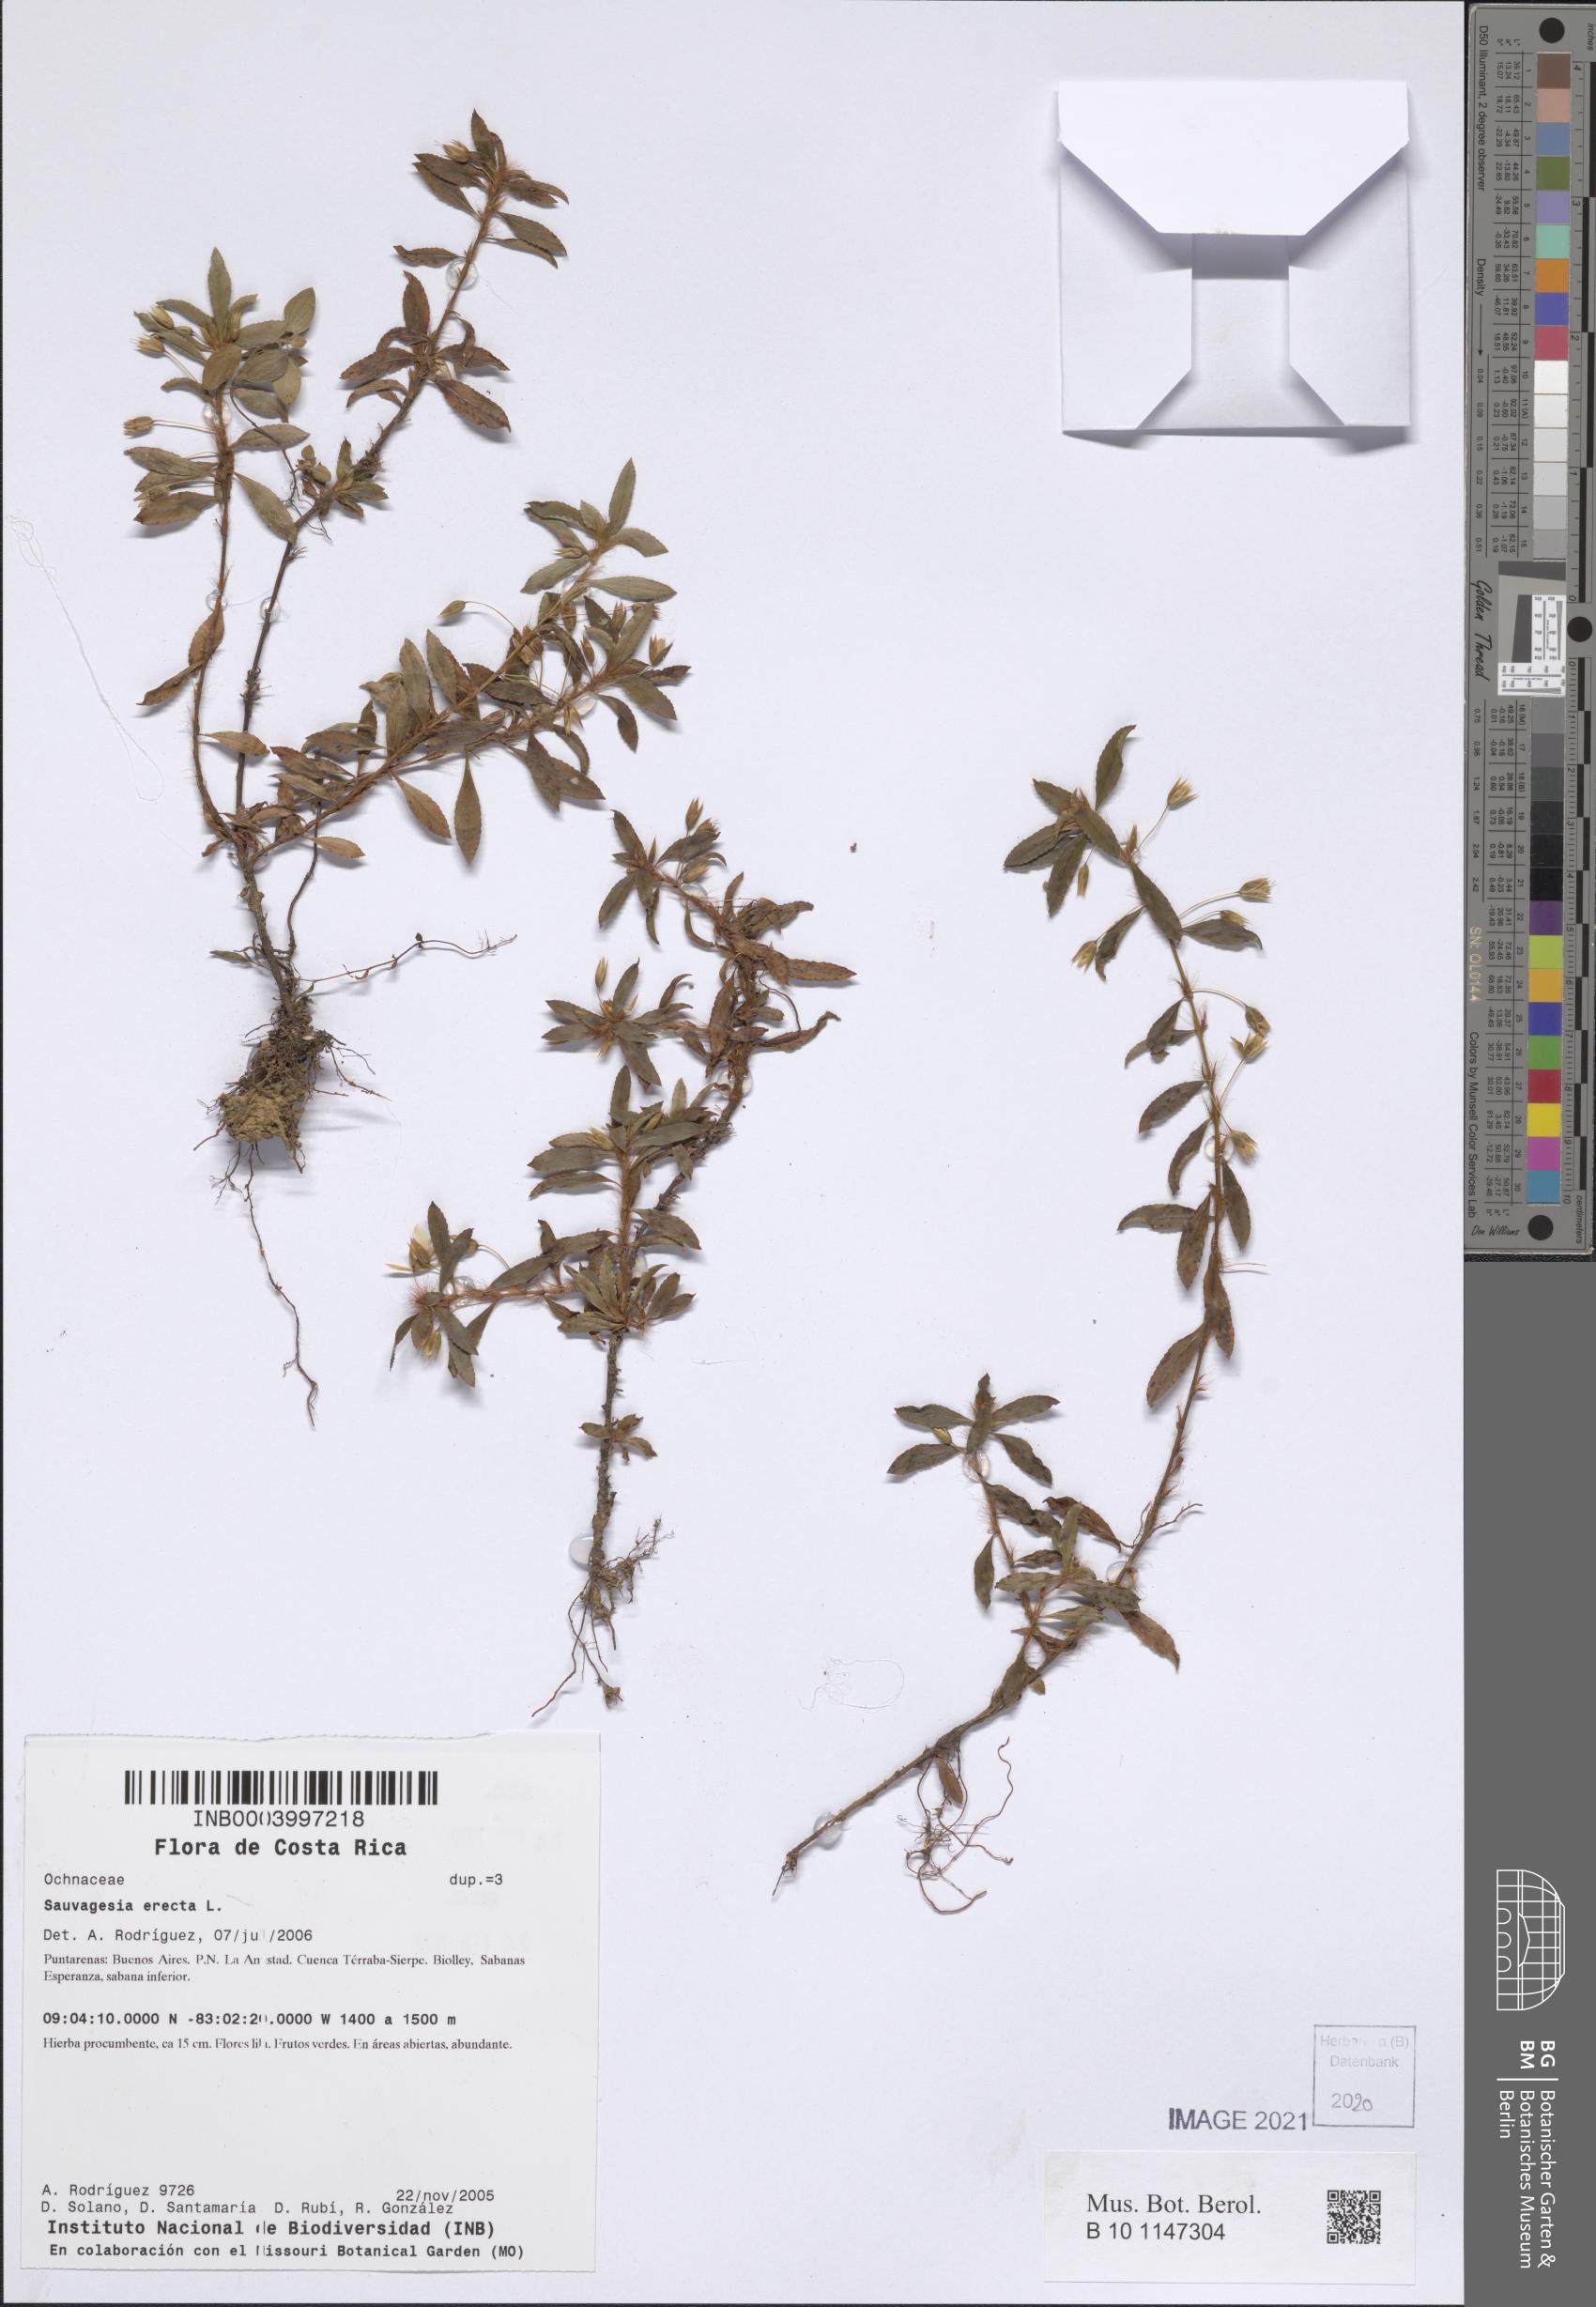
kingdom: Plantae
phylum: Tracheophyta
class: Magnoliopsida
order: Malpighiales
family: Ochnaceae
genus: Sauvagesia
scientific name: Sauvagesia erecta
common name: Creole tea
